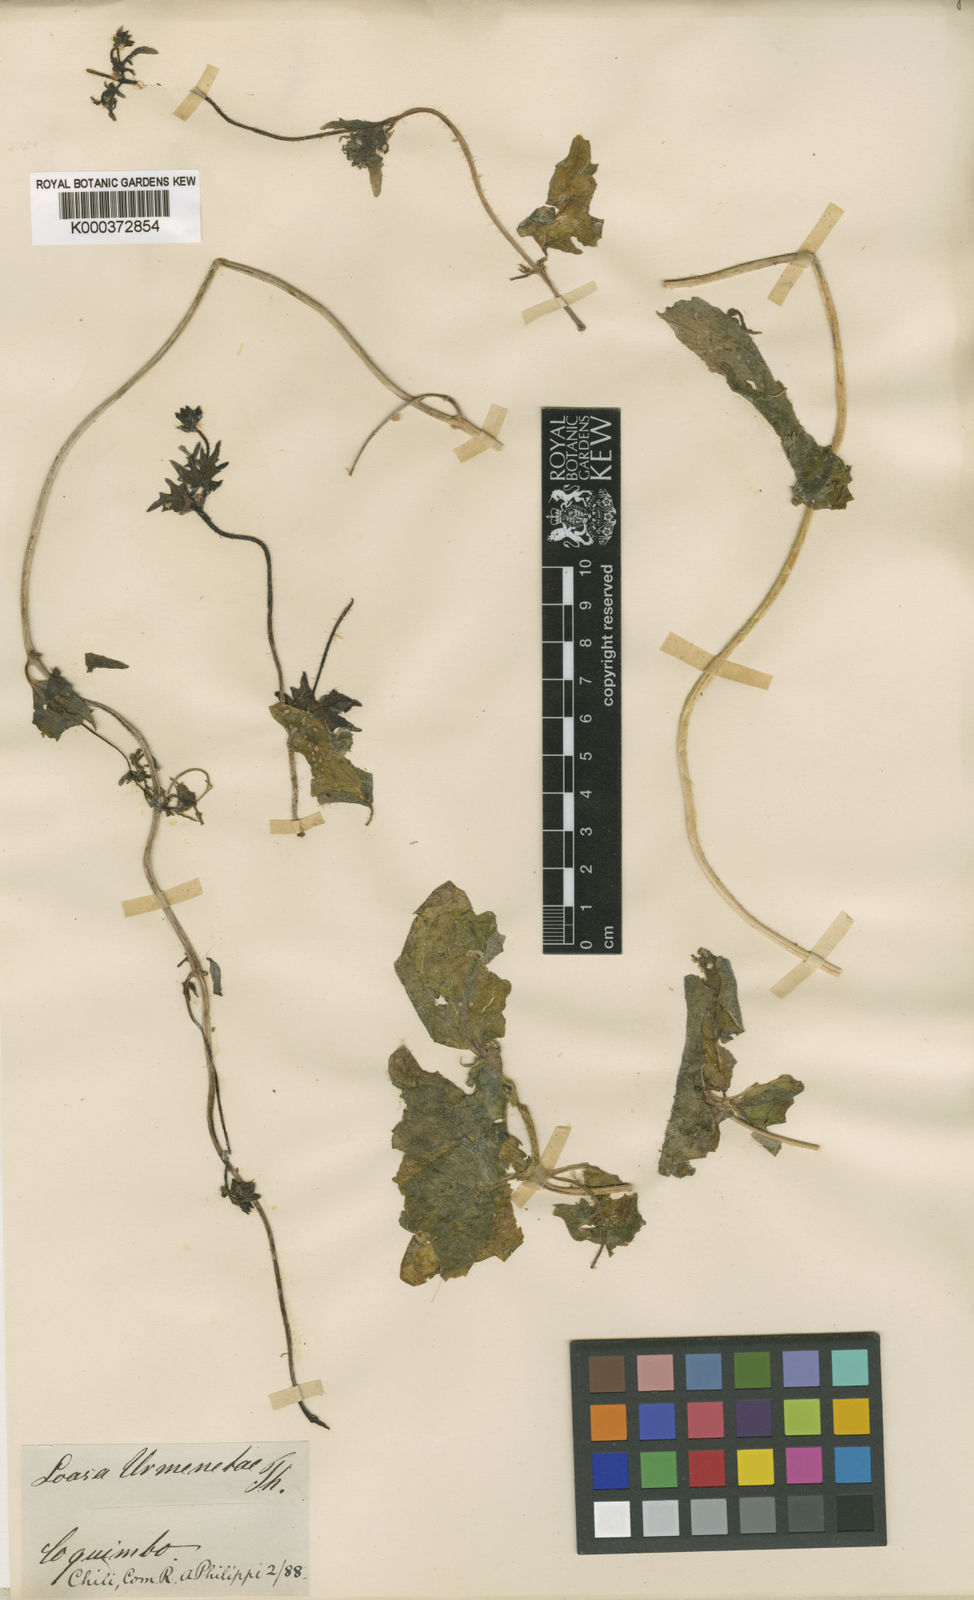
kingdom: Plantae
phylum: Tracheophyta
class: Magnoliopsida
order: Cornales
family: Loasaceae
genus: Loasa
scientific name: Loasa elongata
